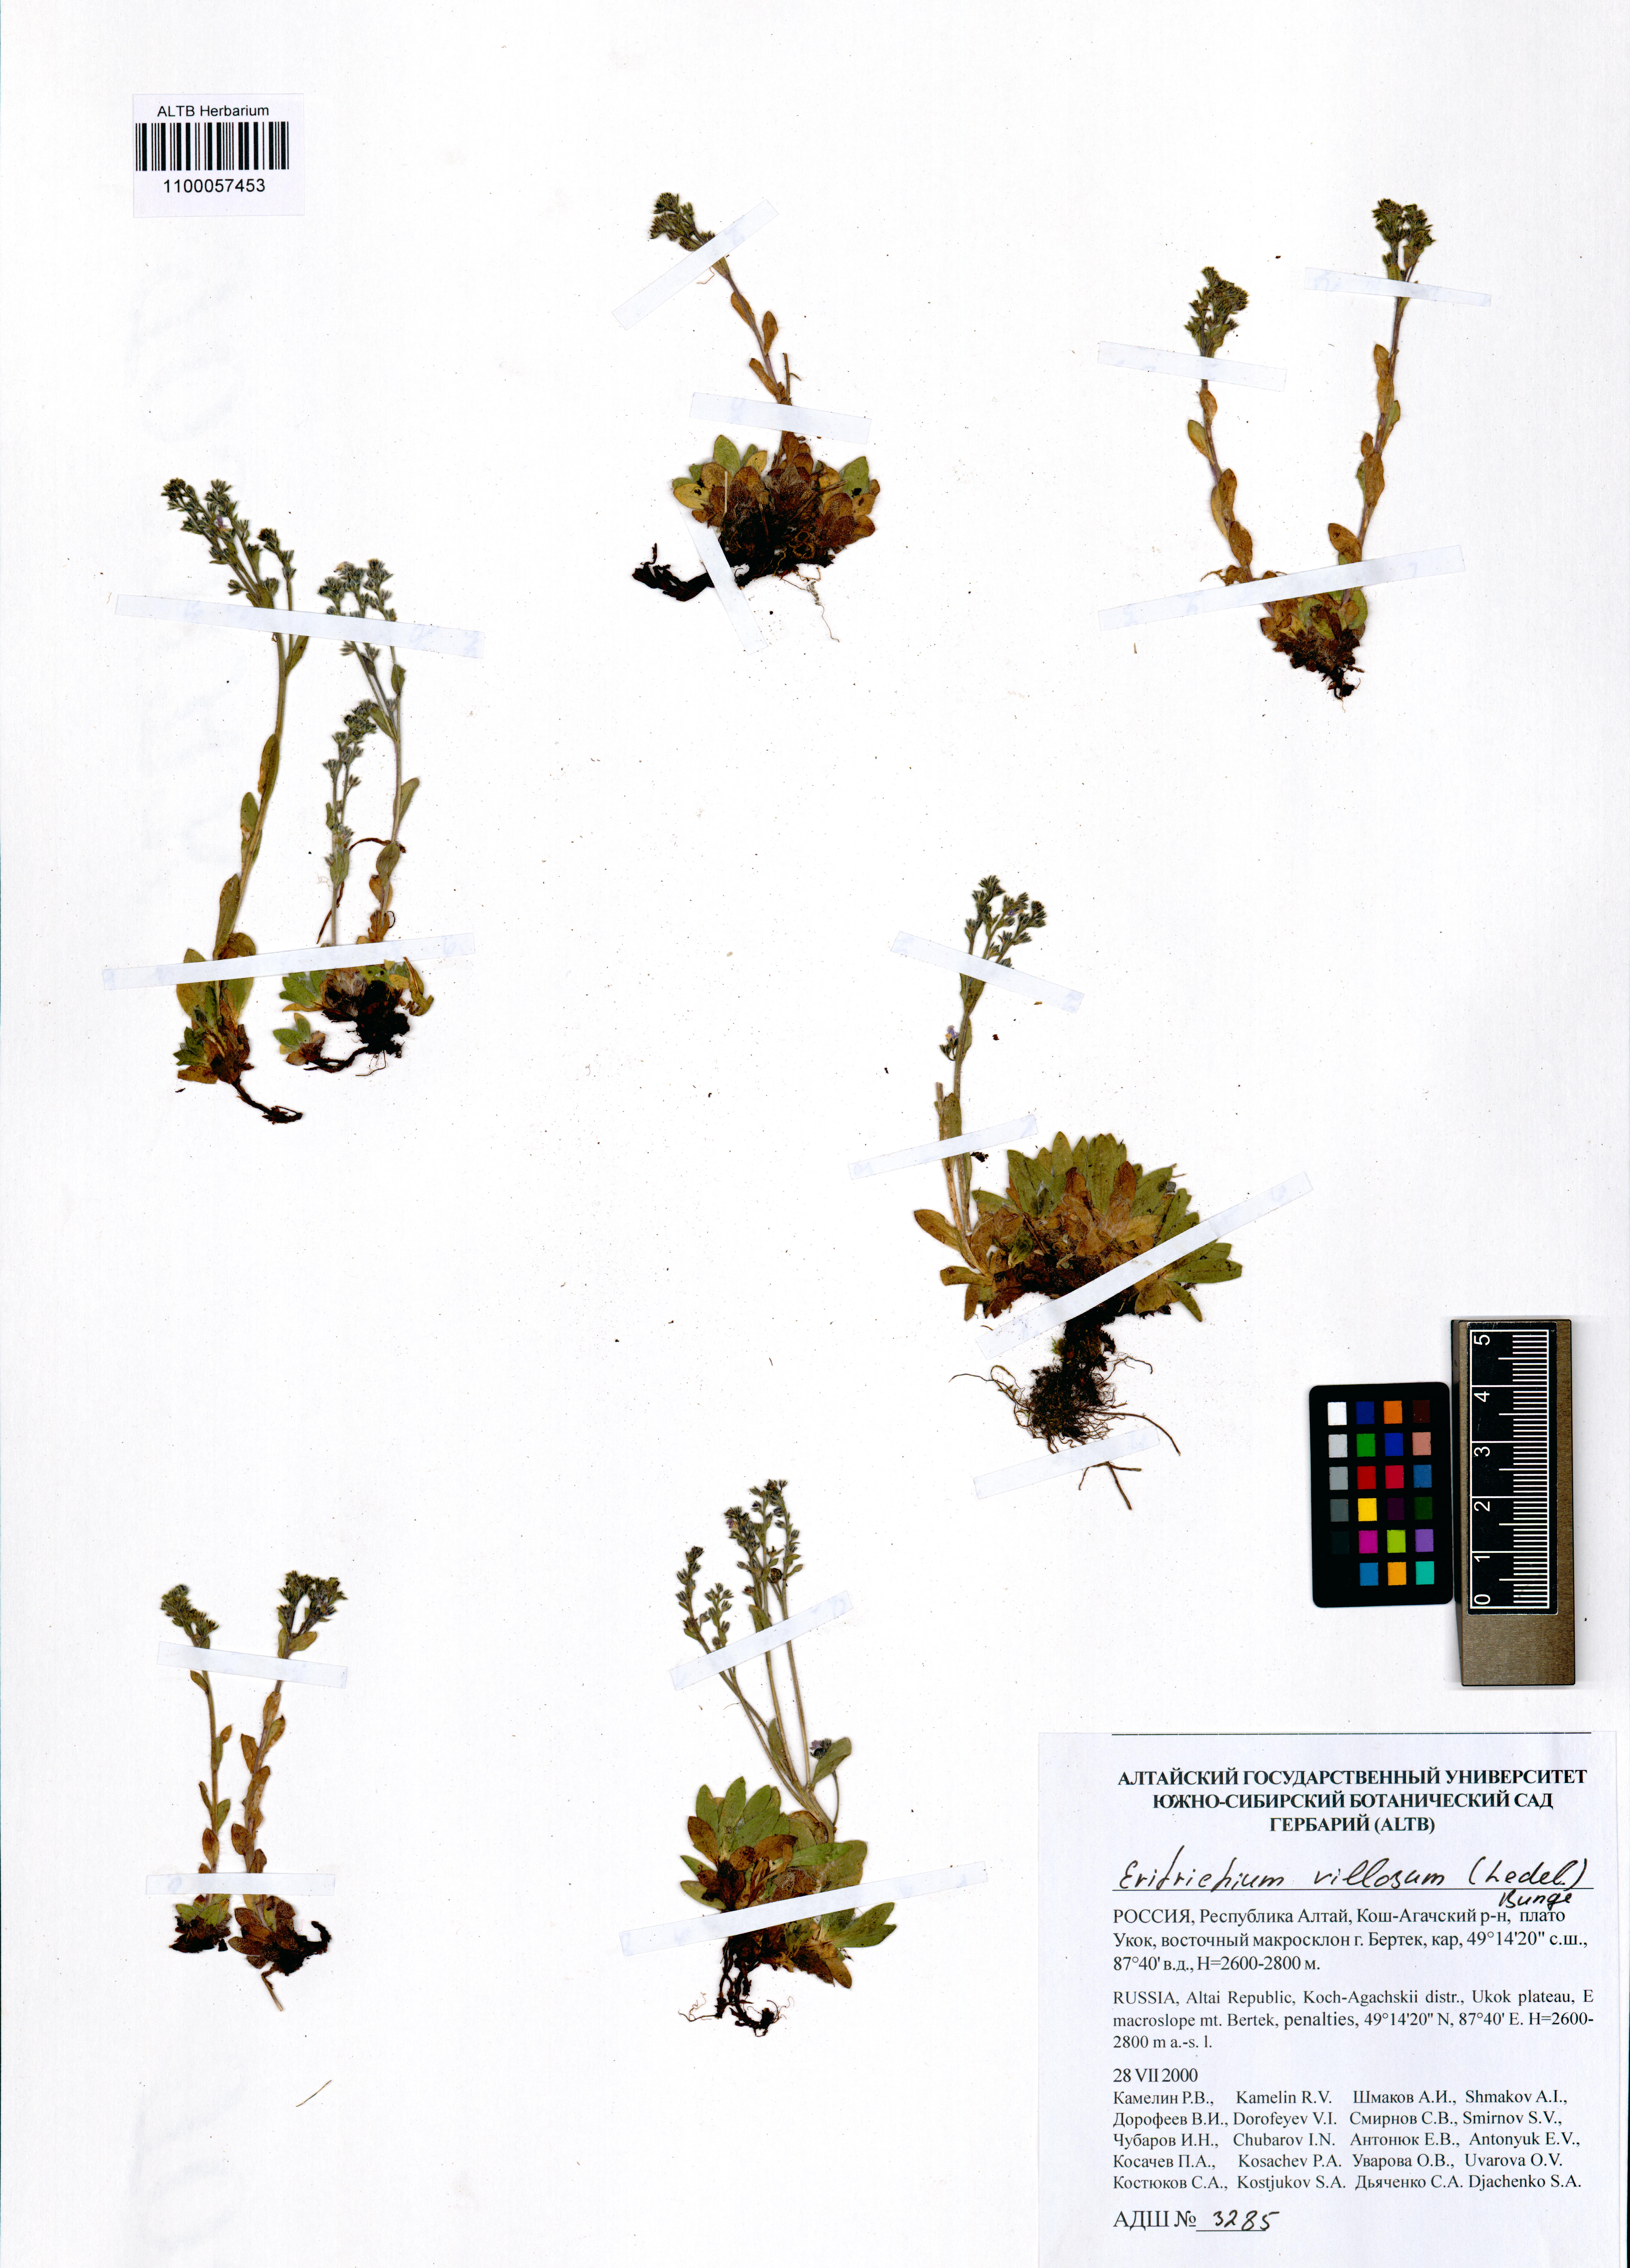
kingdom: Plantae
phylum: Tracheophyta
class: Magnoliopsida
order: Boraginales
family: Boraginaceae
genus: Eritrichium
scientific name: Eritrichium villosum
